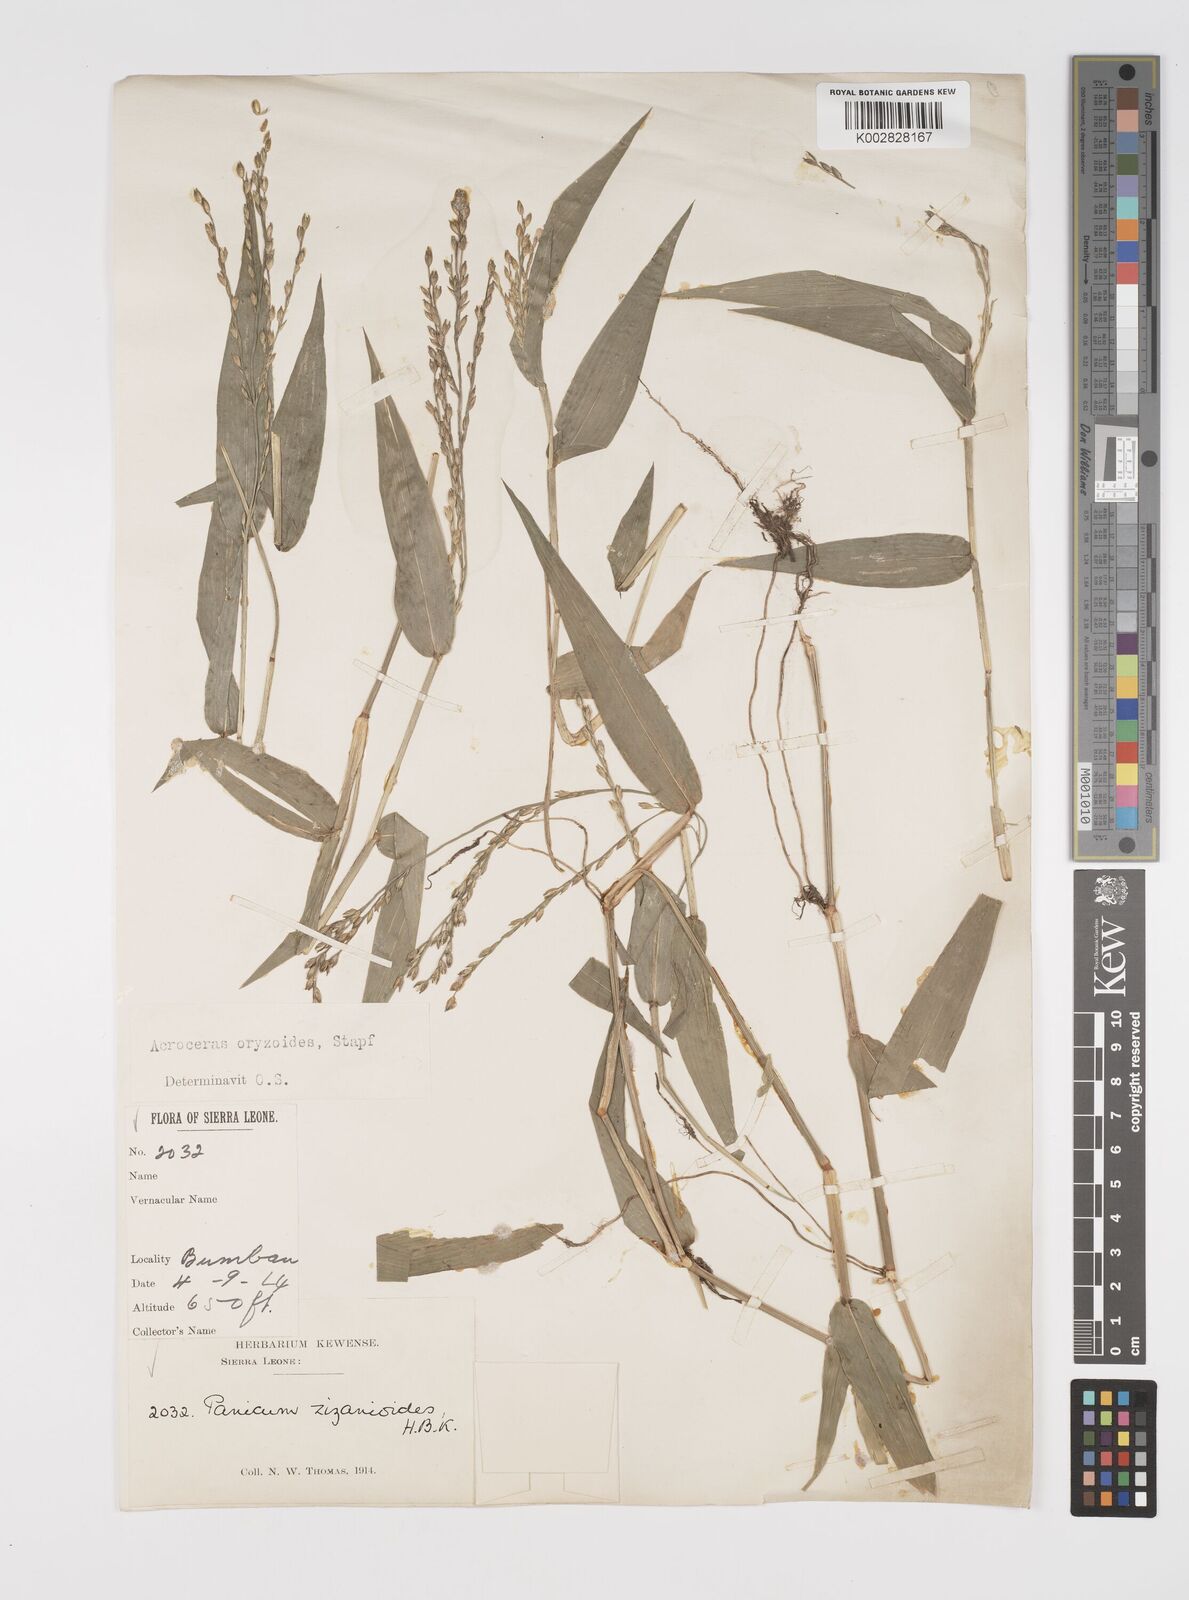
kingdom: Plantae
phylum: Tracheophyta
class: Liliopsida
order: Poales
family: Poaceae
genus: Acroceras
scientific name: Acroceras zizanioides
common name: Oat grass
